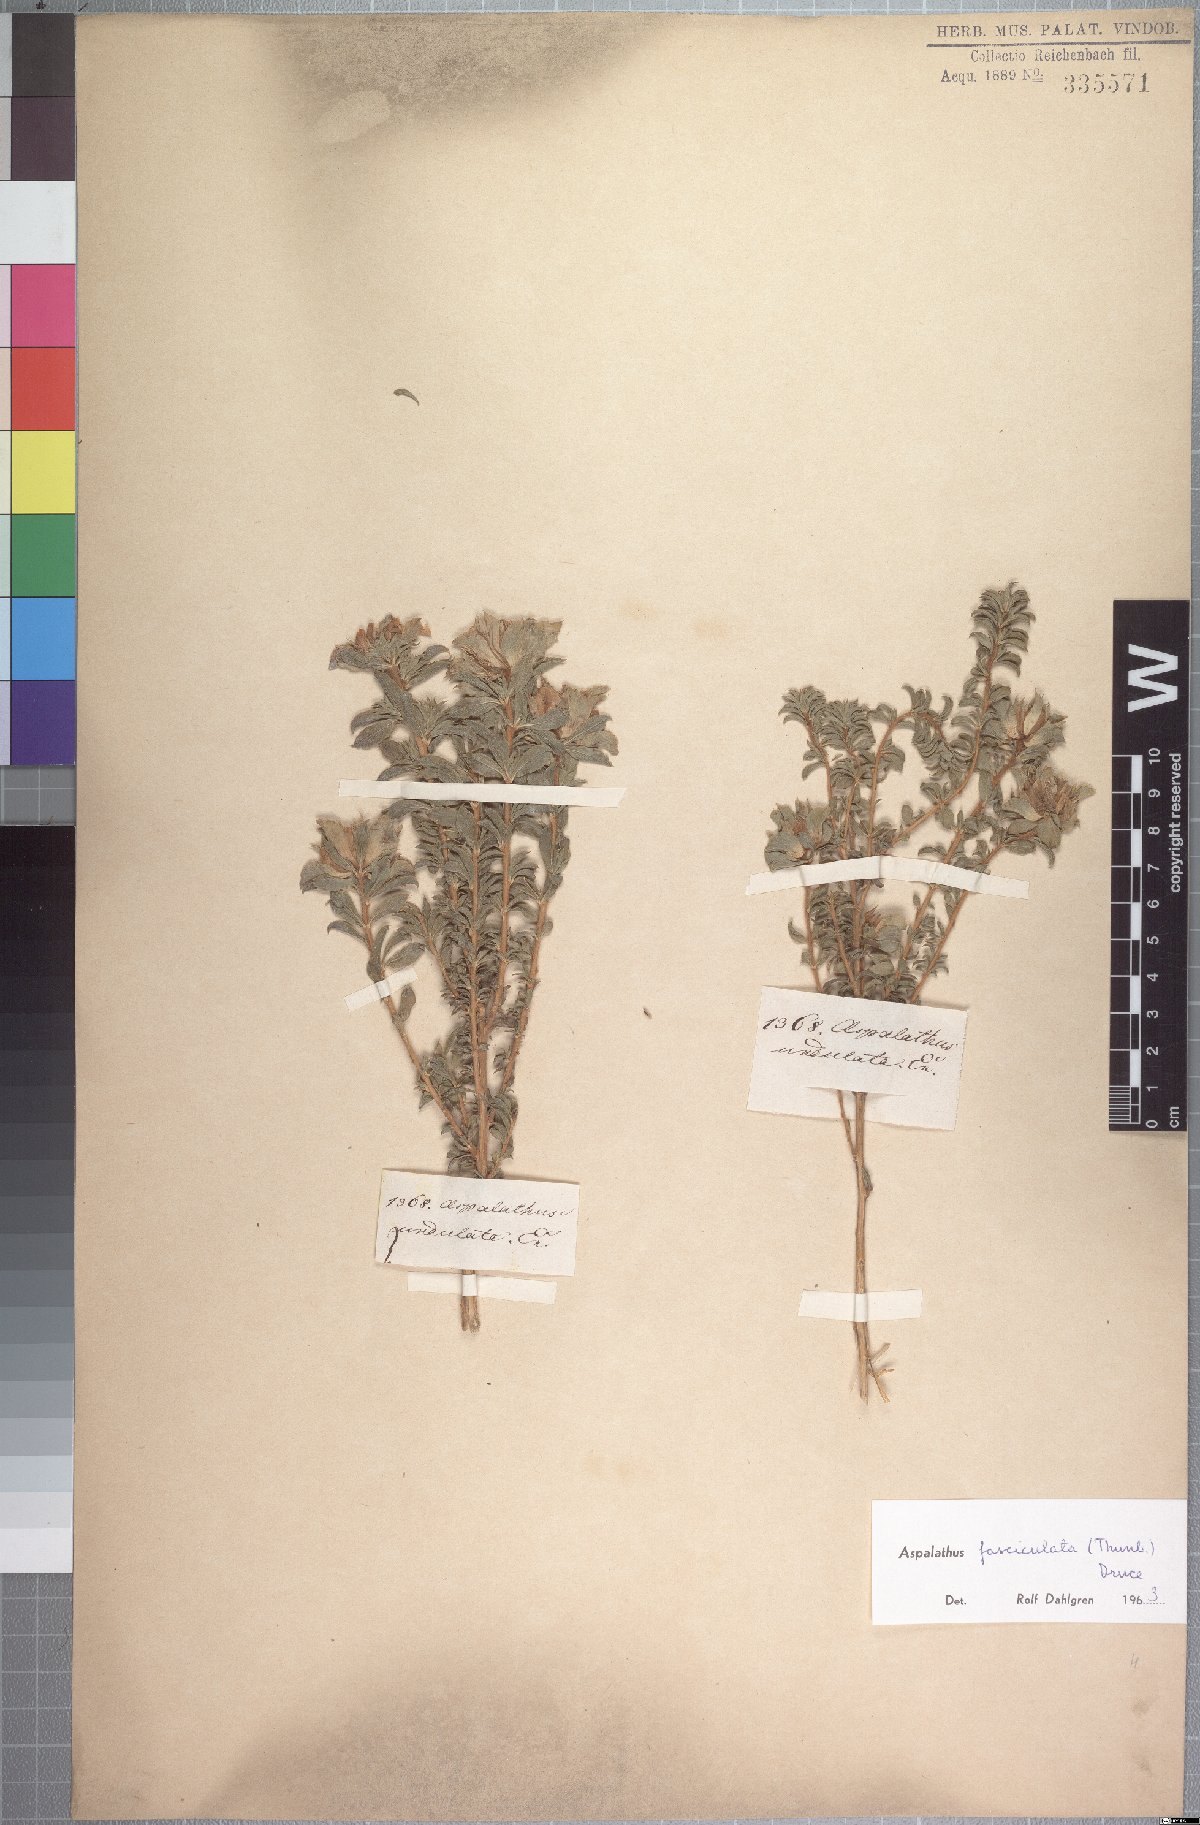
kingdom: Plantae
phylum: Tracheophyta
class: Magnoliopsida
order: Fabales
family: Fabaceae
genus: Aspalathus
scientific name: Aspalathus fasciculata
